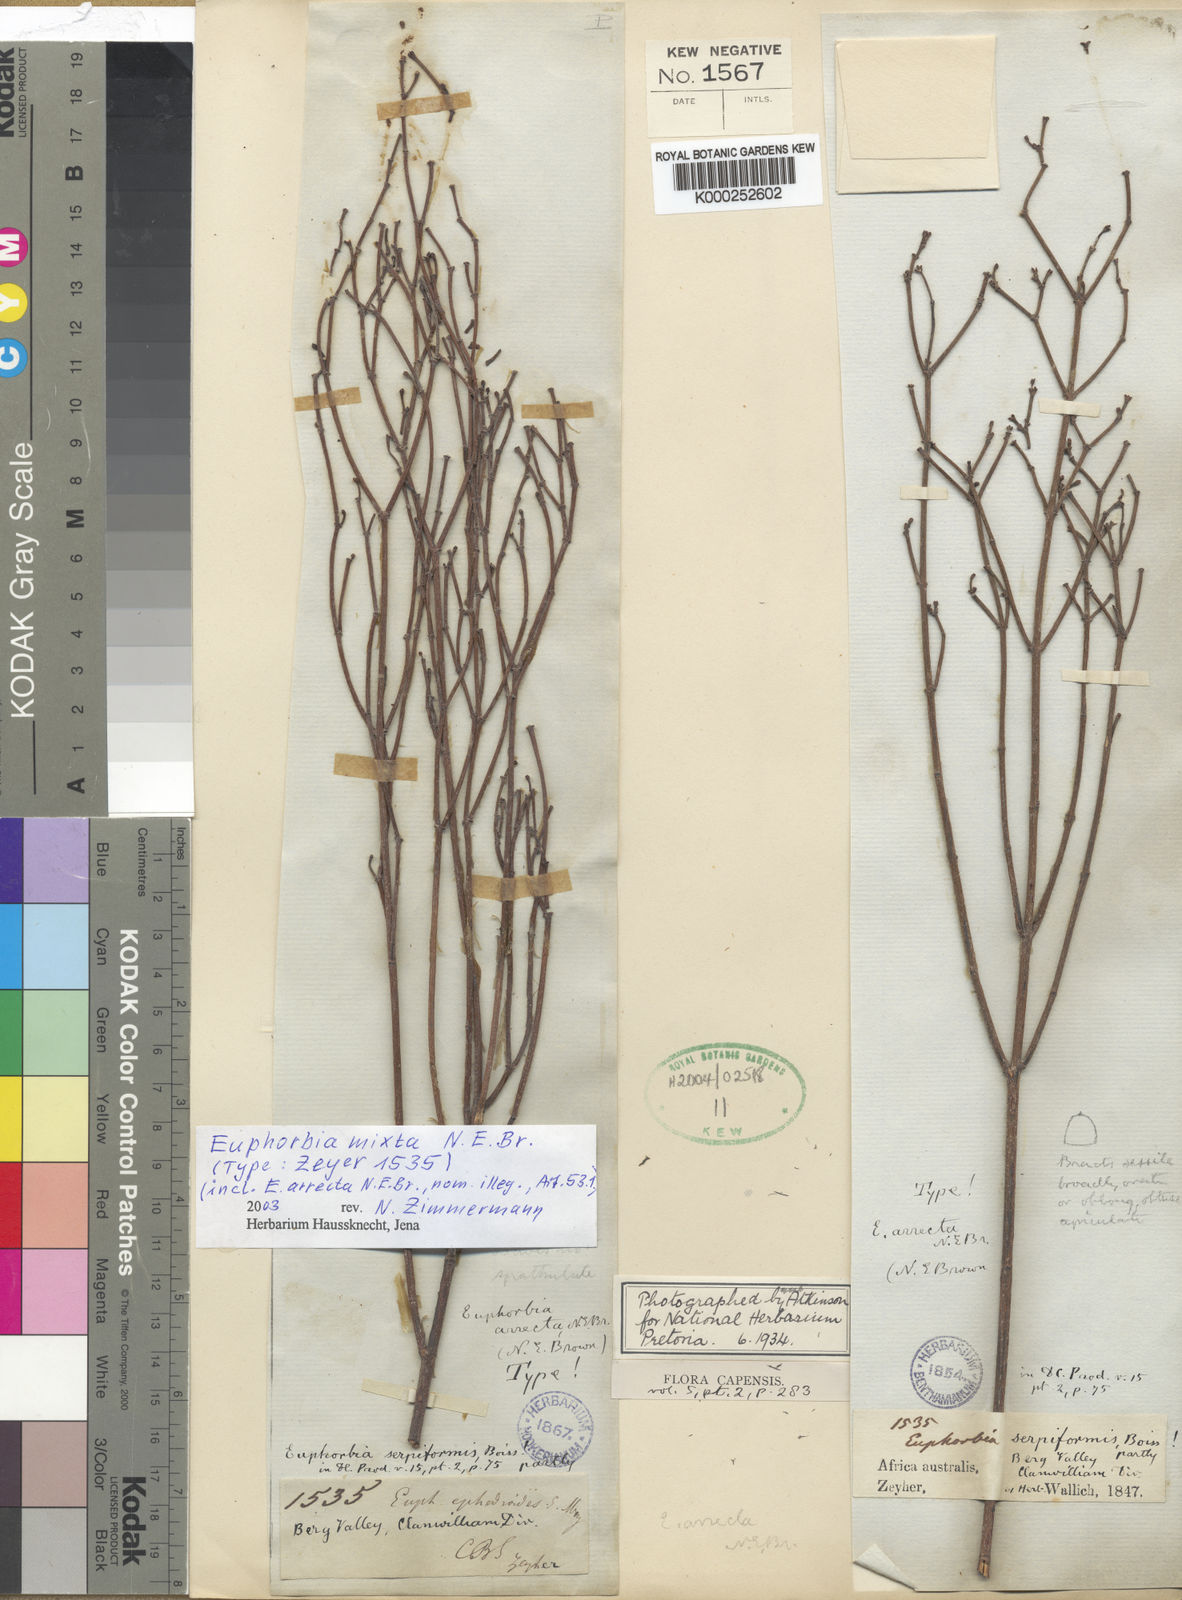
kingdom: Plantae
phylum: Tracheophyta
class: Magnoliopsida
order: Malpighiales
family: Euphorbiaceae
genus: Euphorbia
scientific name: Euphorbia tenax
